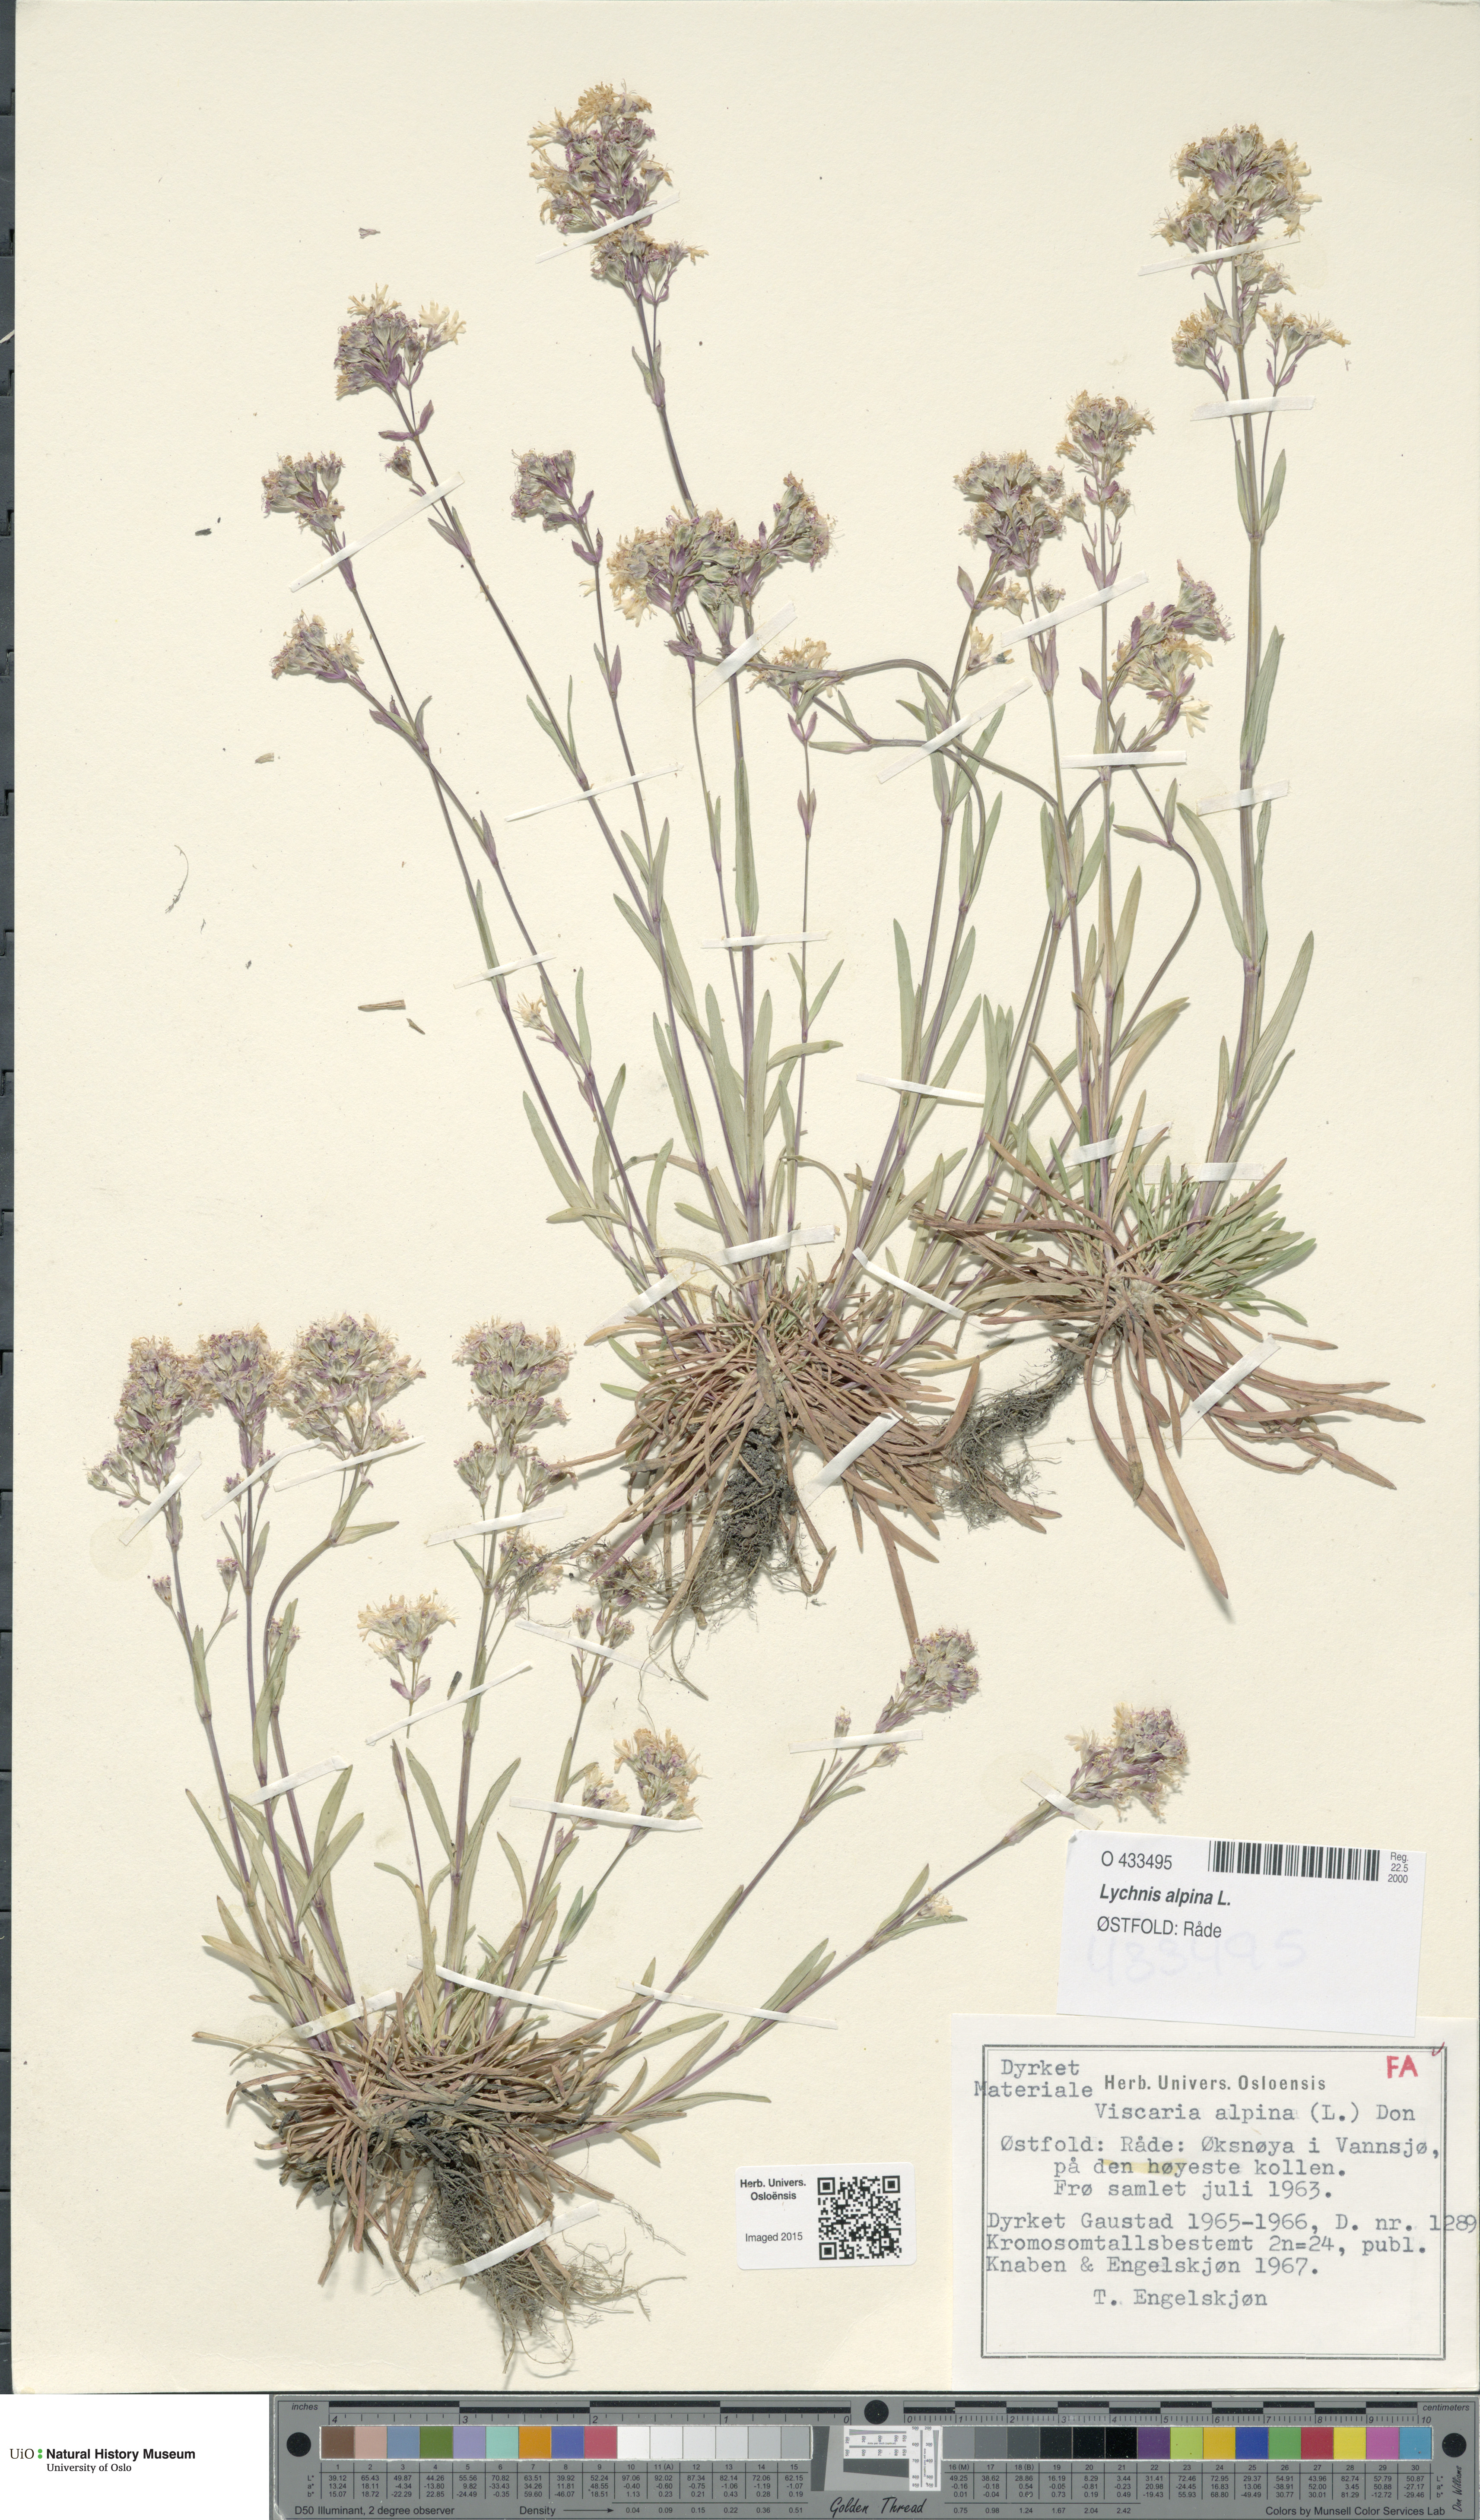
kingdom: Plantae
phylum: Tracheophyta
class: Magnoliopsida
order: Caryophyllales
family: Caryophyllaceae
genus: Viscaria
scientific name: Viscaria alpina
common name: Alpine campion
